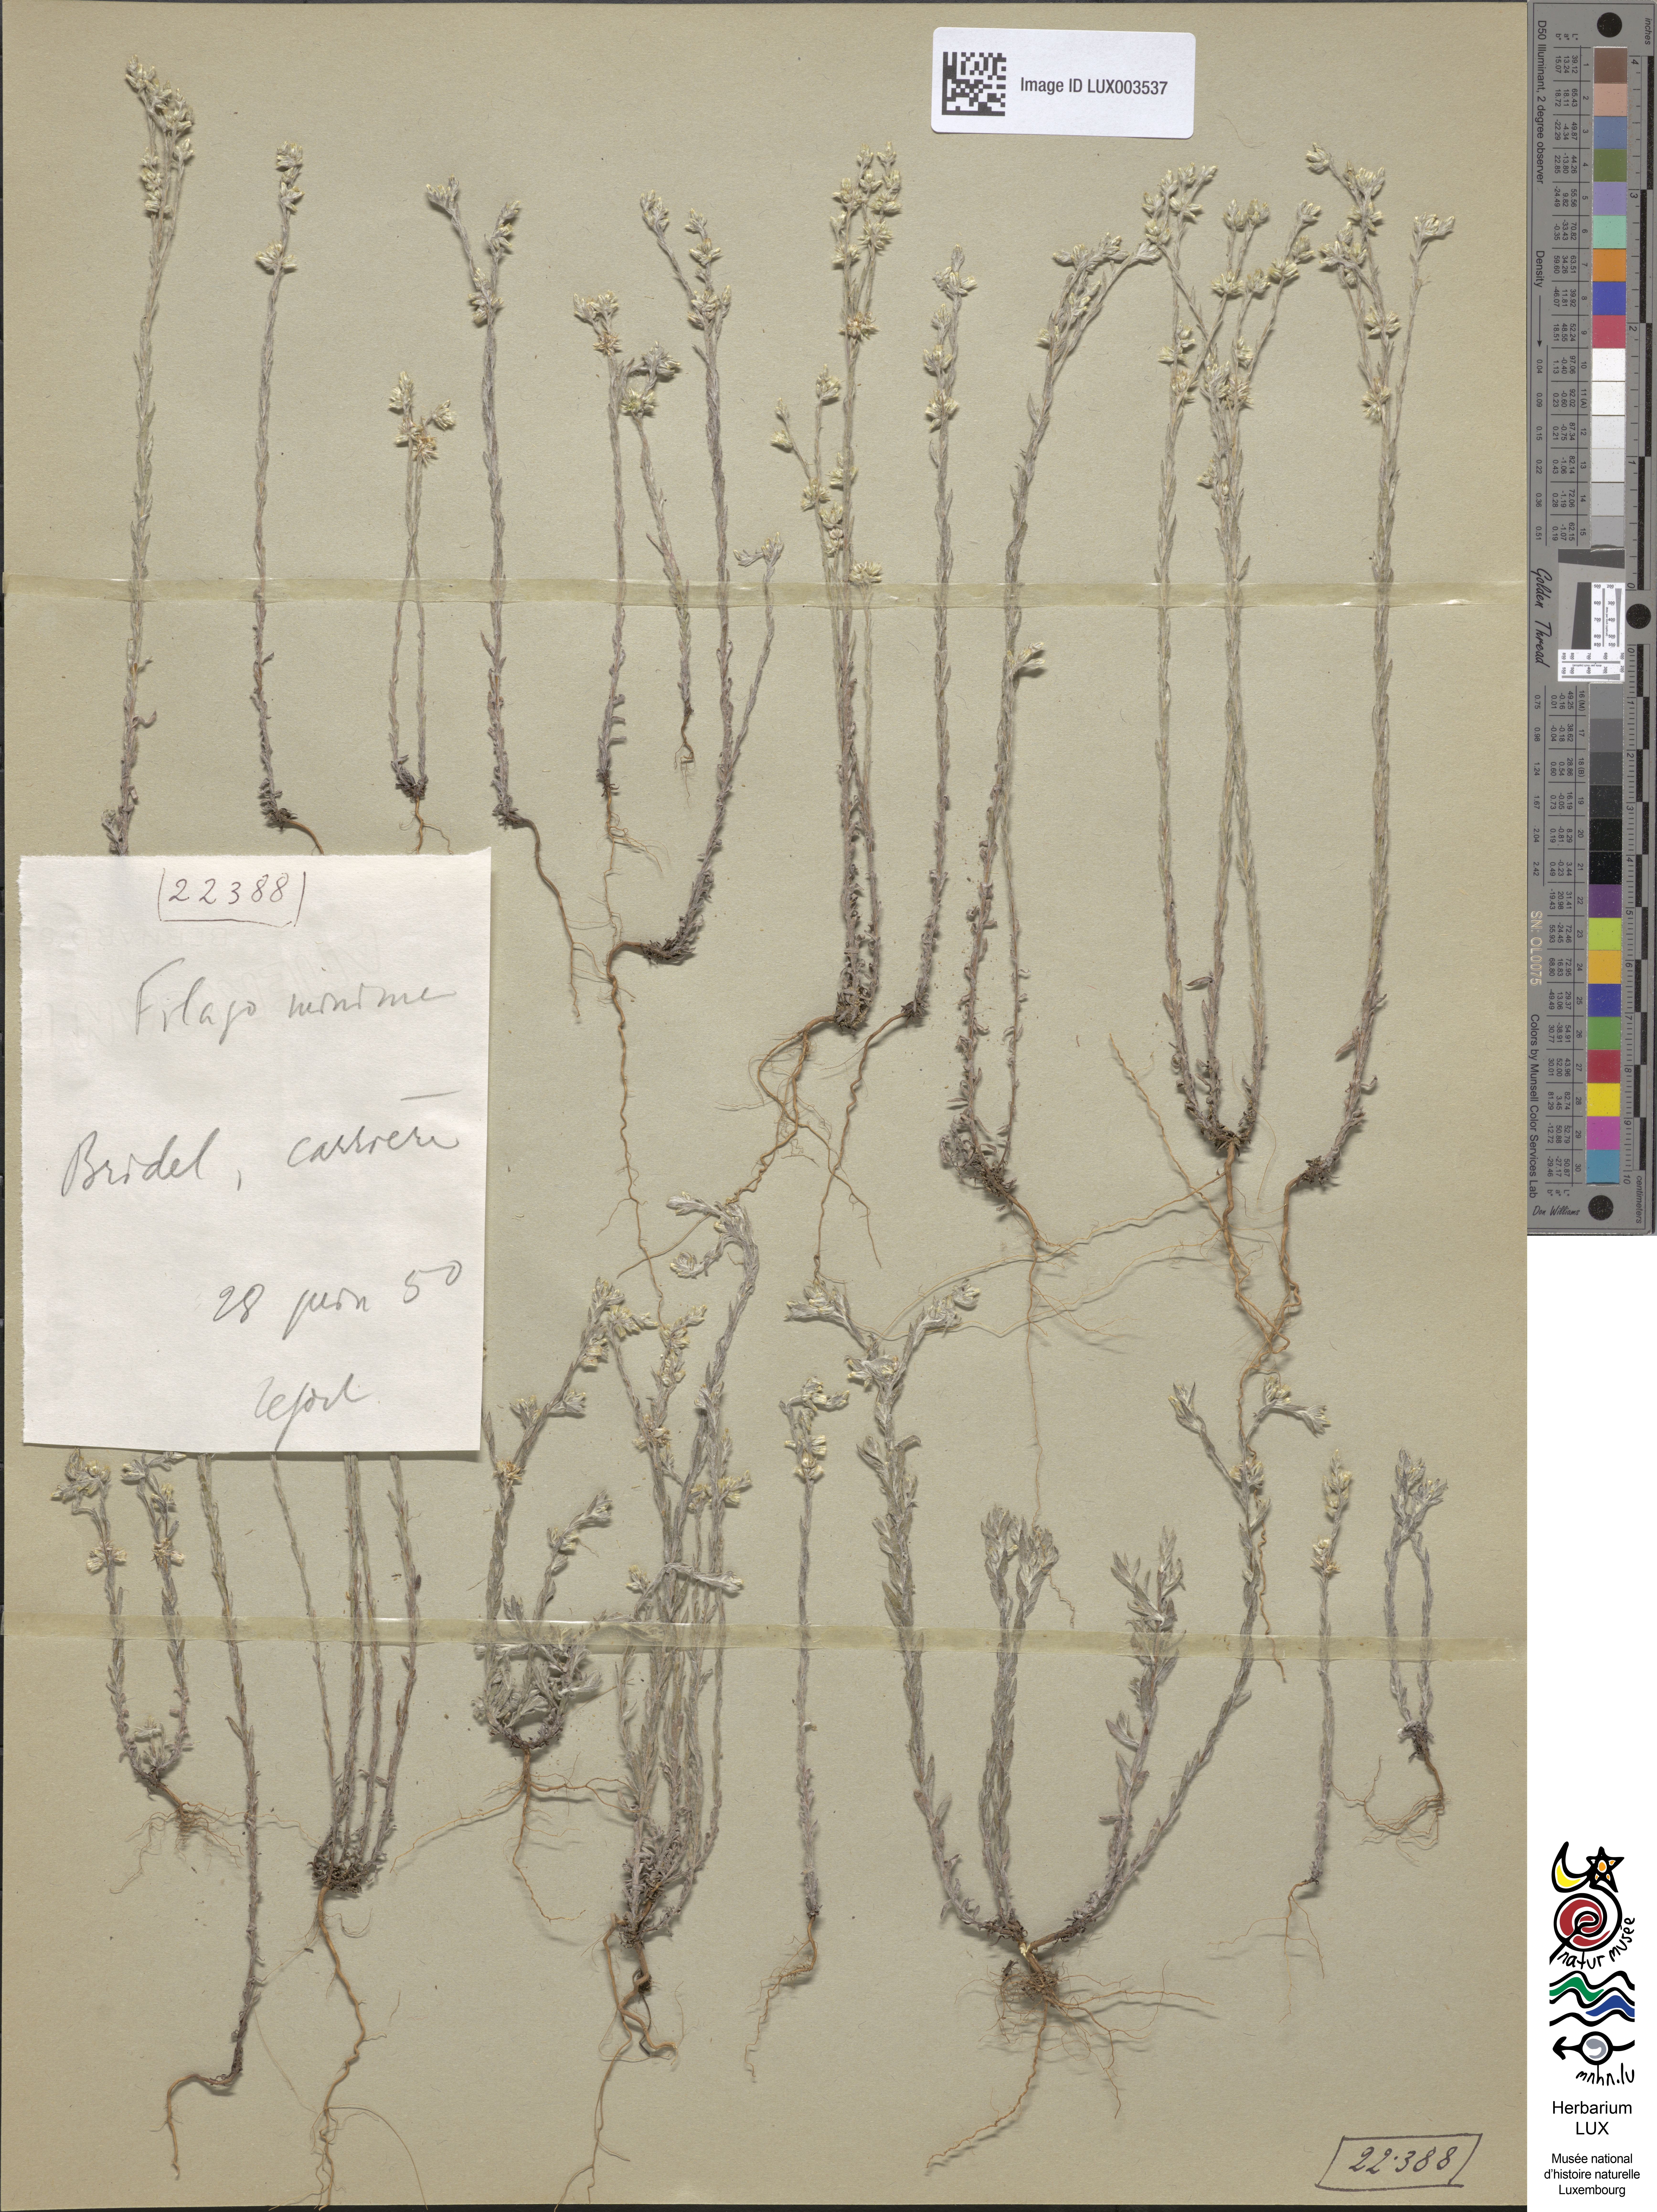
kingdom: Plantae
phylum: Tracheophyta
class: Magnoliopsida
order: Asterales
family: Asteraceae
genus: Logfia
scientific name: Logfia minima
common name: Little cottonrose
